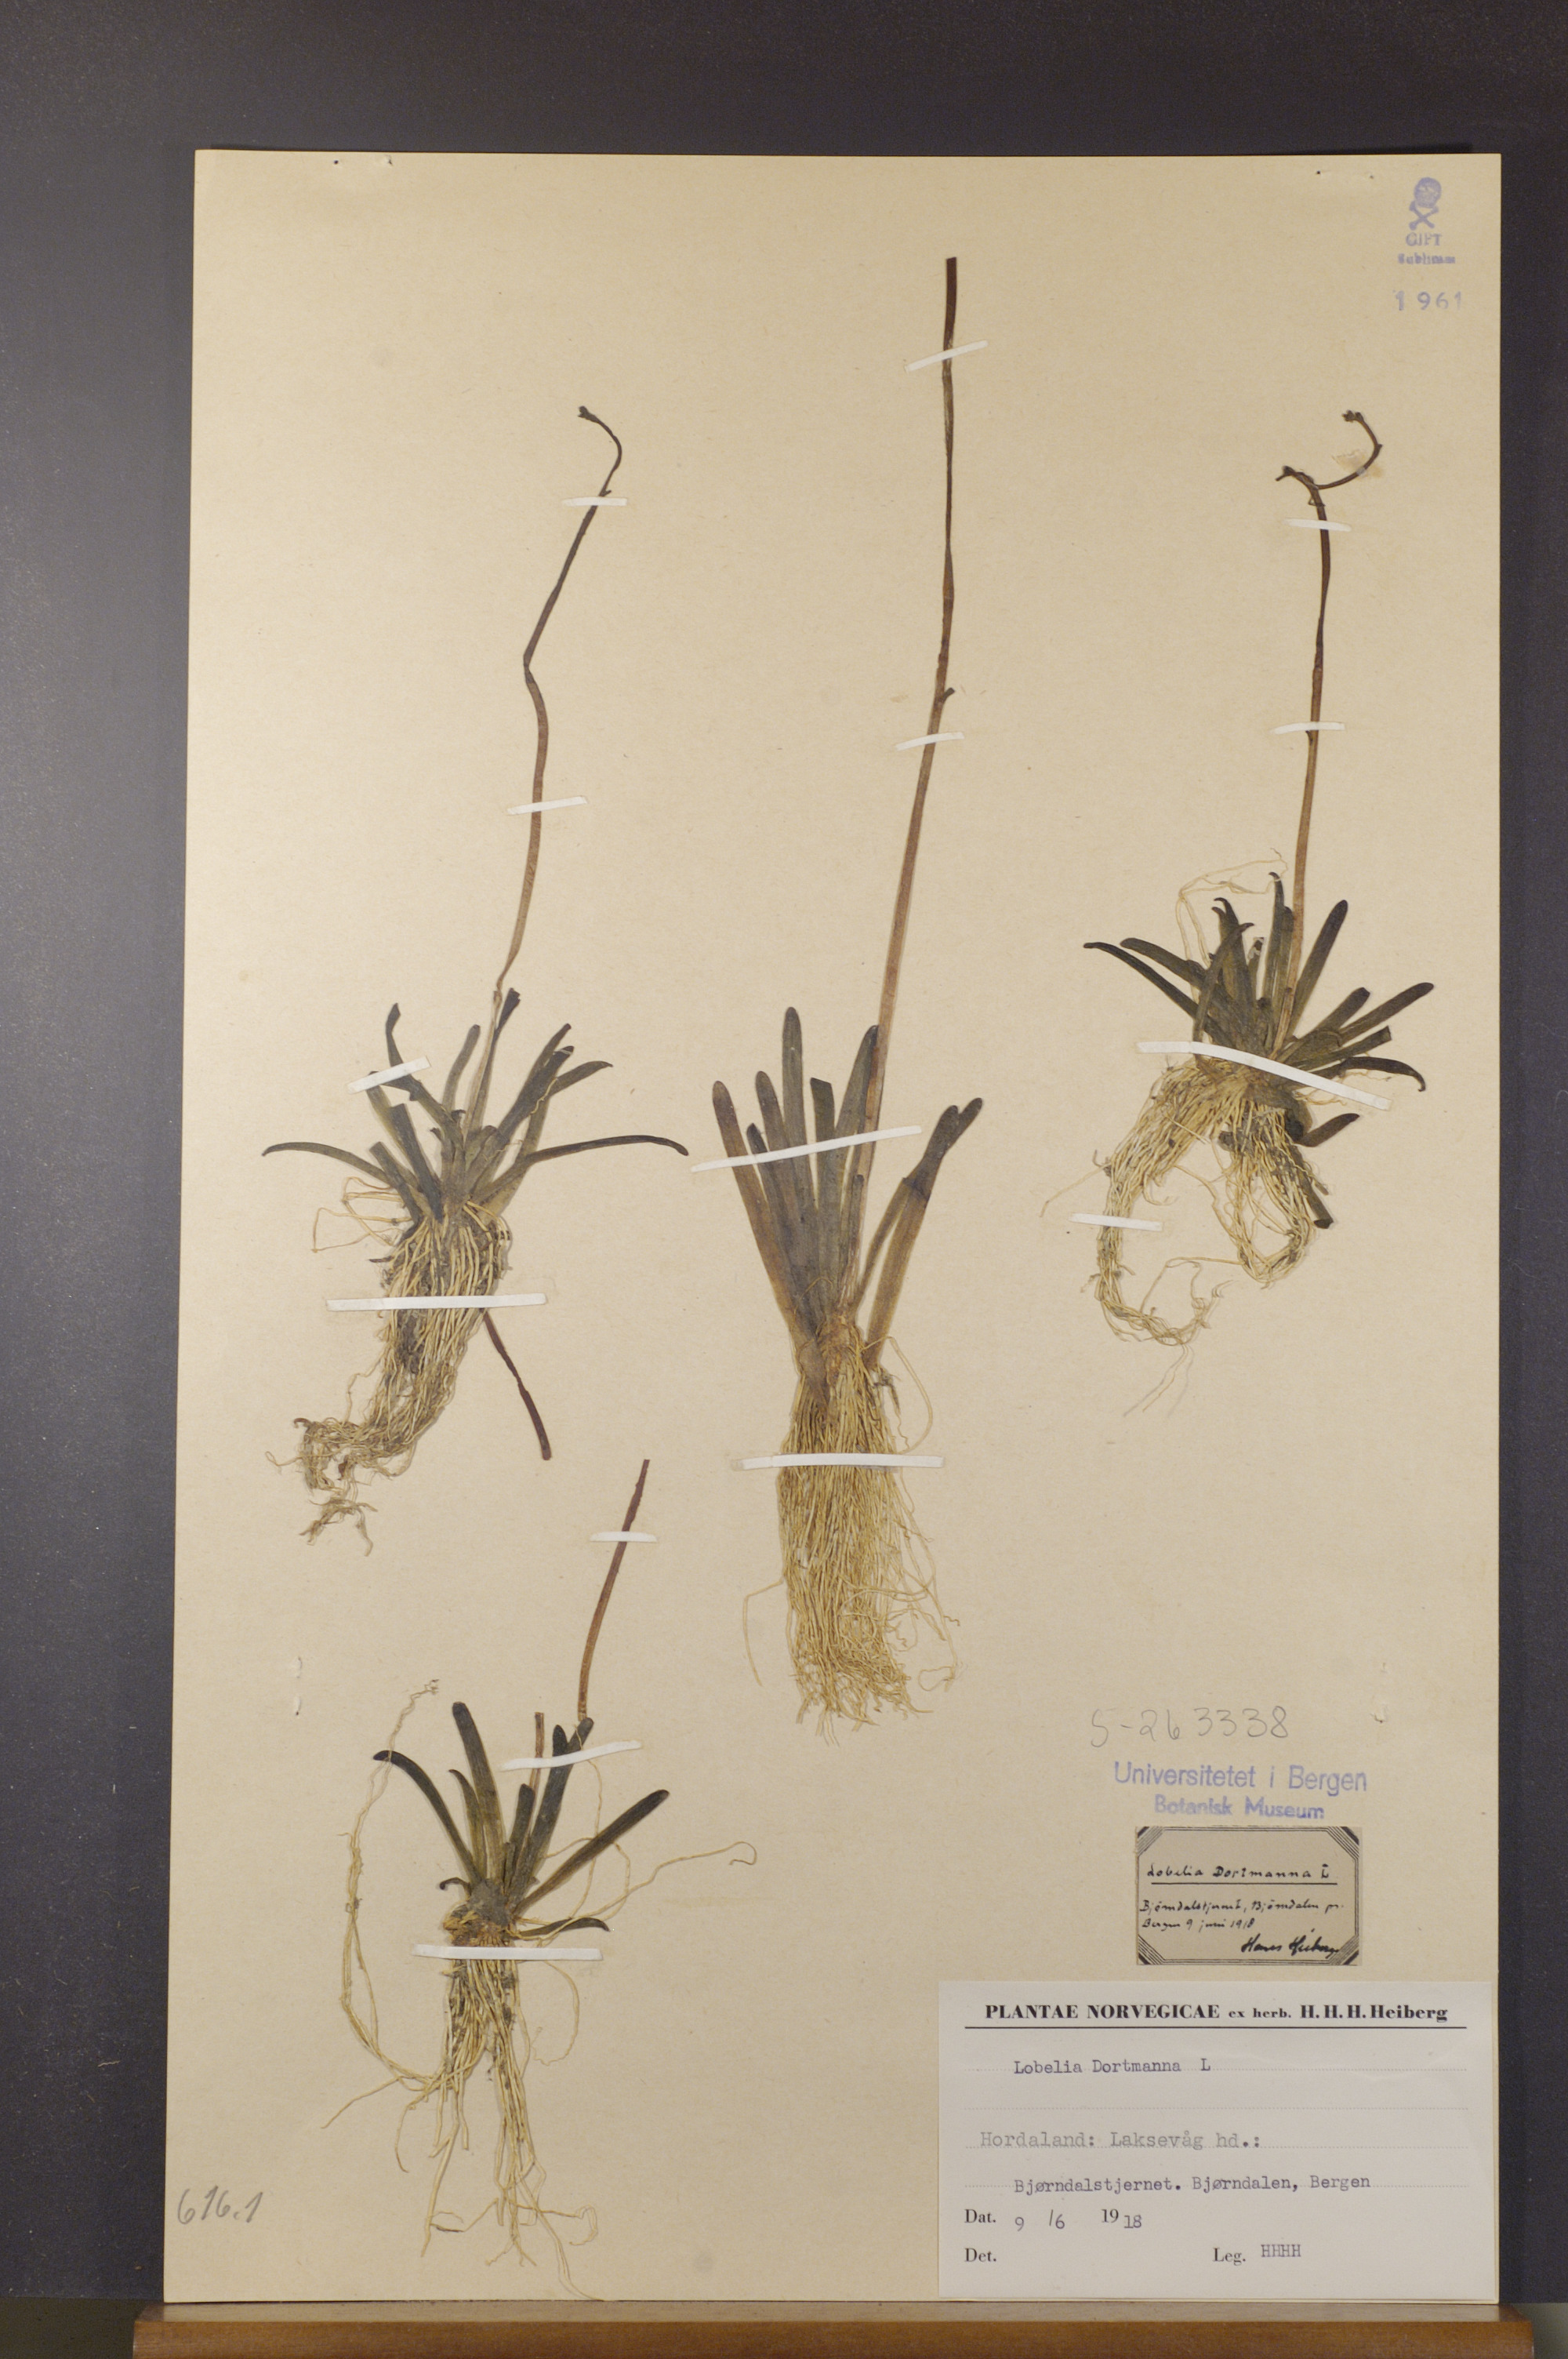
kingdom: Plantae
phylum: Tracheophyta
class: Magnoliopsida
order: Asterales
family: Campanulaceae
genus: Lobelia
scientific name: Lobelia dortmanna
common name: Water lobelia
